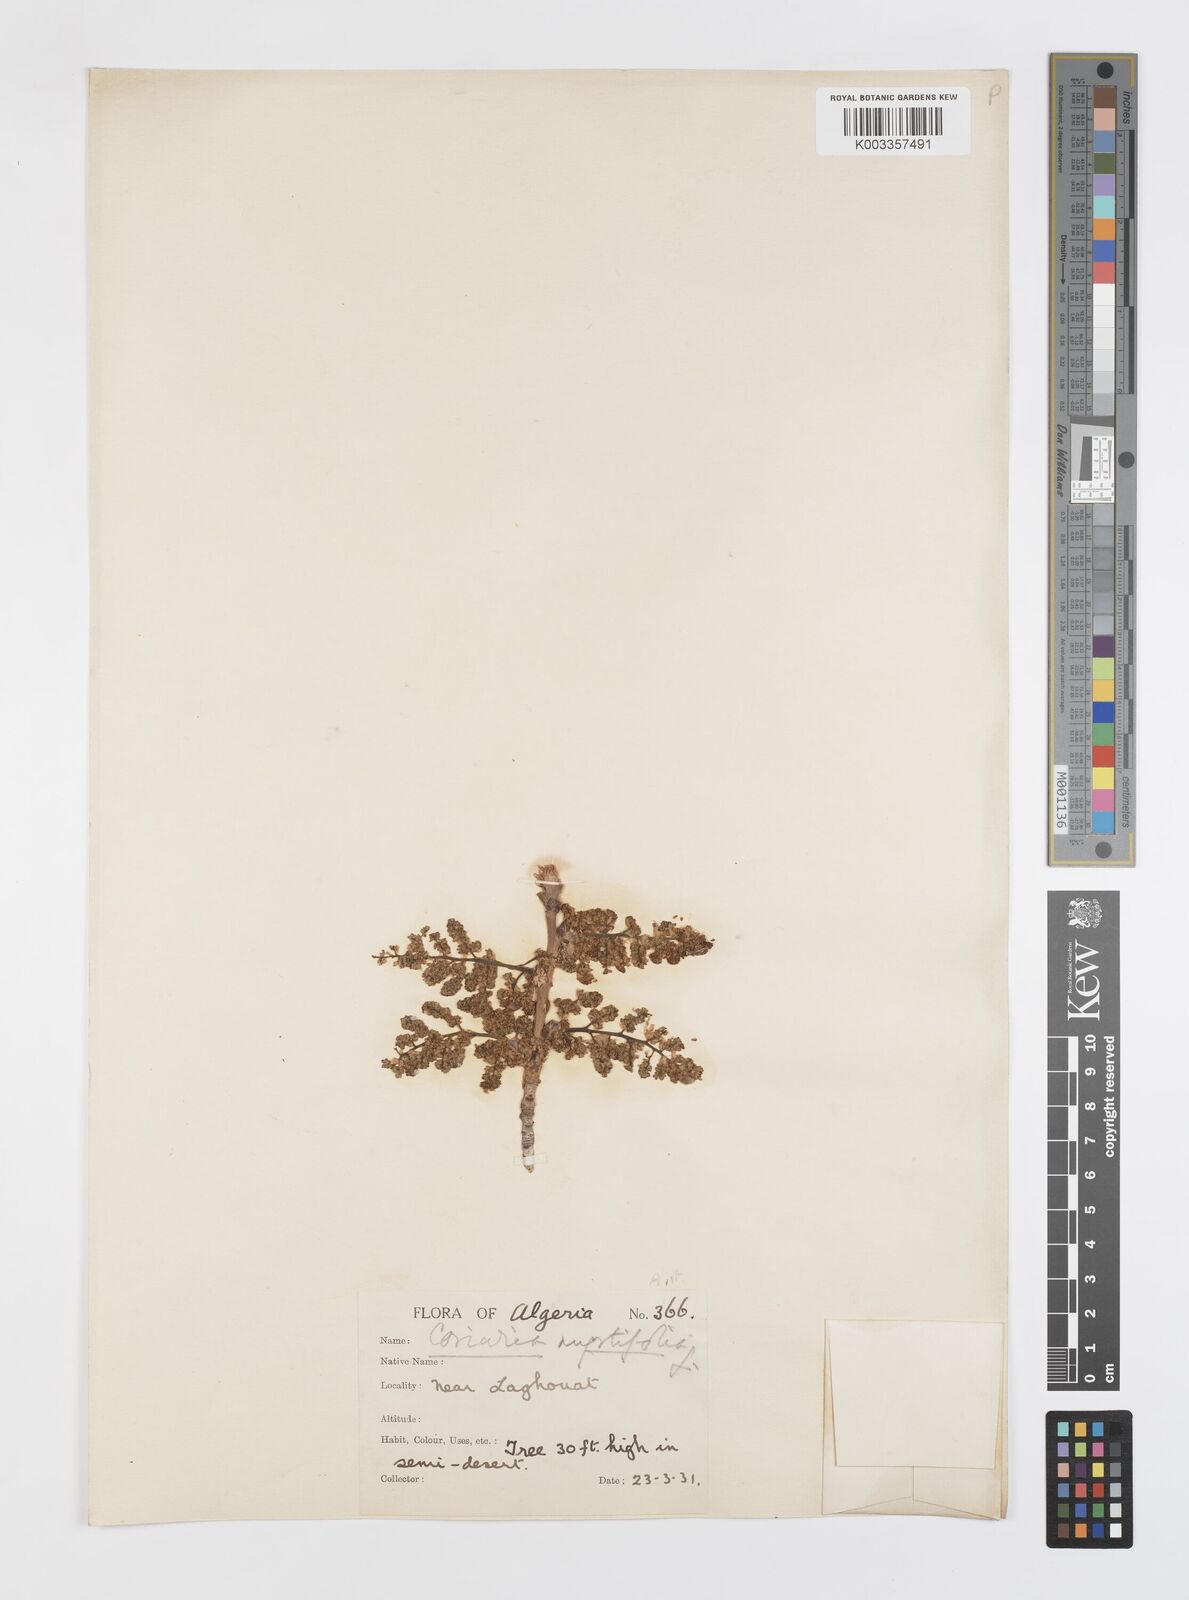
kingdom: Plantae
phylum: Tracheophyta
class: Magnoliopsida
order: Cucurbitales
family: Coriariaceae
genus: Coriaria
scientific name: Coriaria
